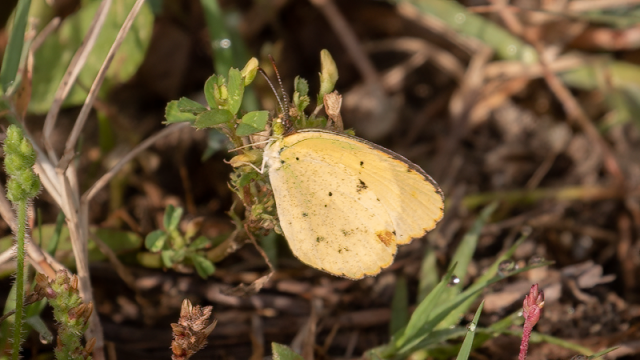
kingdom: Animalia
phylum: Arthropoda
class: Insecta
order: Lepidoptera
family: Pieridae
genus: Pyrisitia
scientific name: Pyrisitia lisa
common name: Little Yellow
